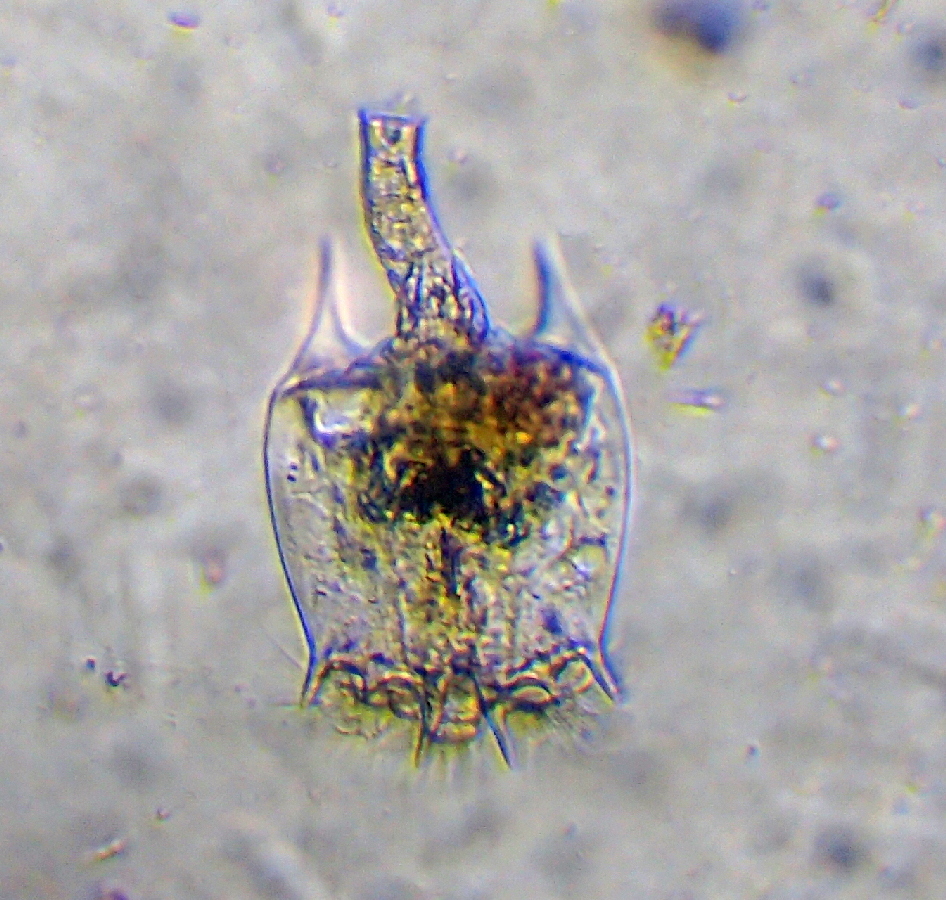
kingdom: Animalia
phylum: Rotifera
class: Eurotatoria
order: Ploima
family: Brachionidae
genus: Brachionus
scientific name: Brachionus quadridentatus
